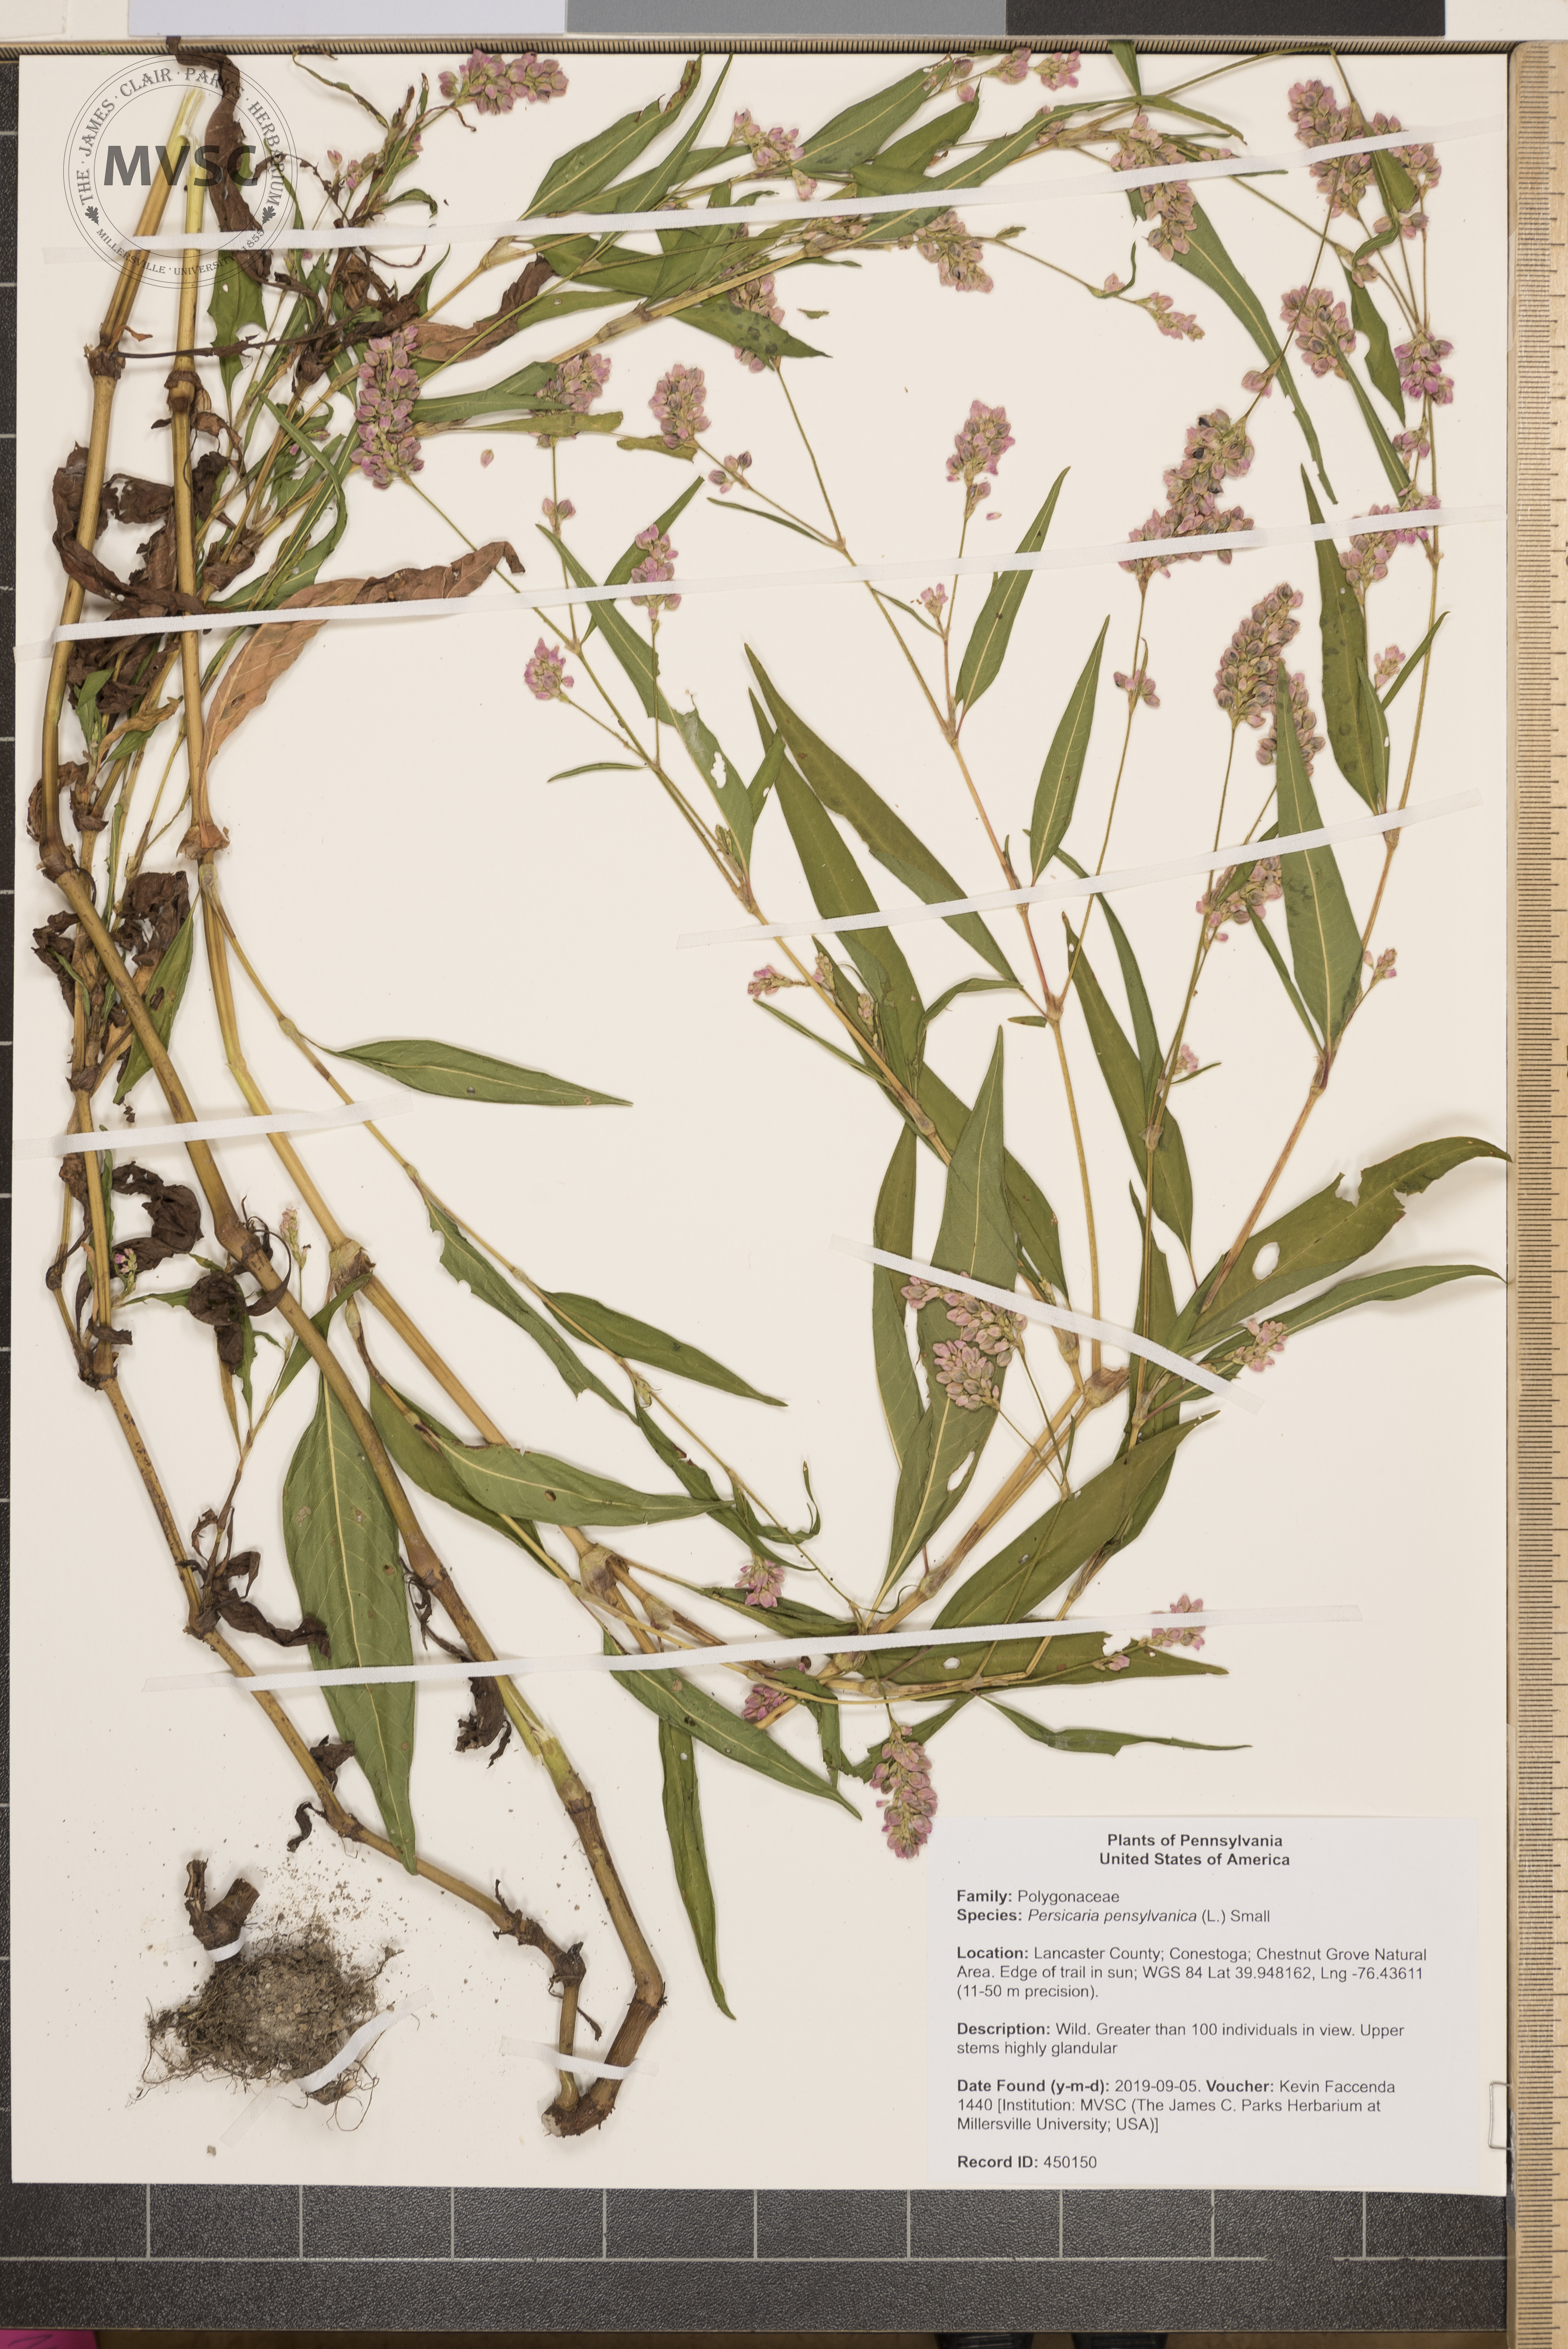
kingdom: Plantae
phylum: Tracheophyta
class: Magnoliopsida
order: Caryophyllales
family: Polygonaceae
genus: Persicaria
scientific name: Persicaria pensylvanica
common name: Pinkweed
